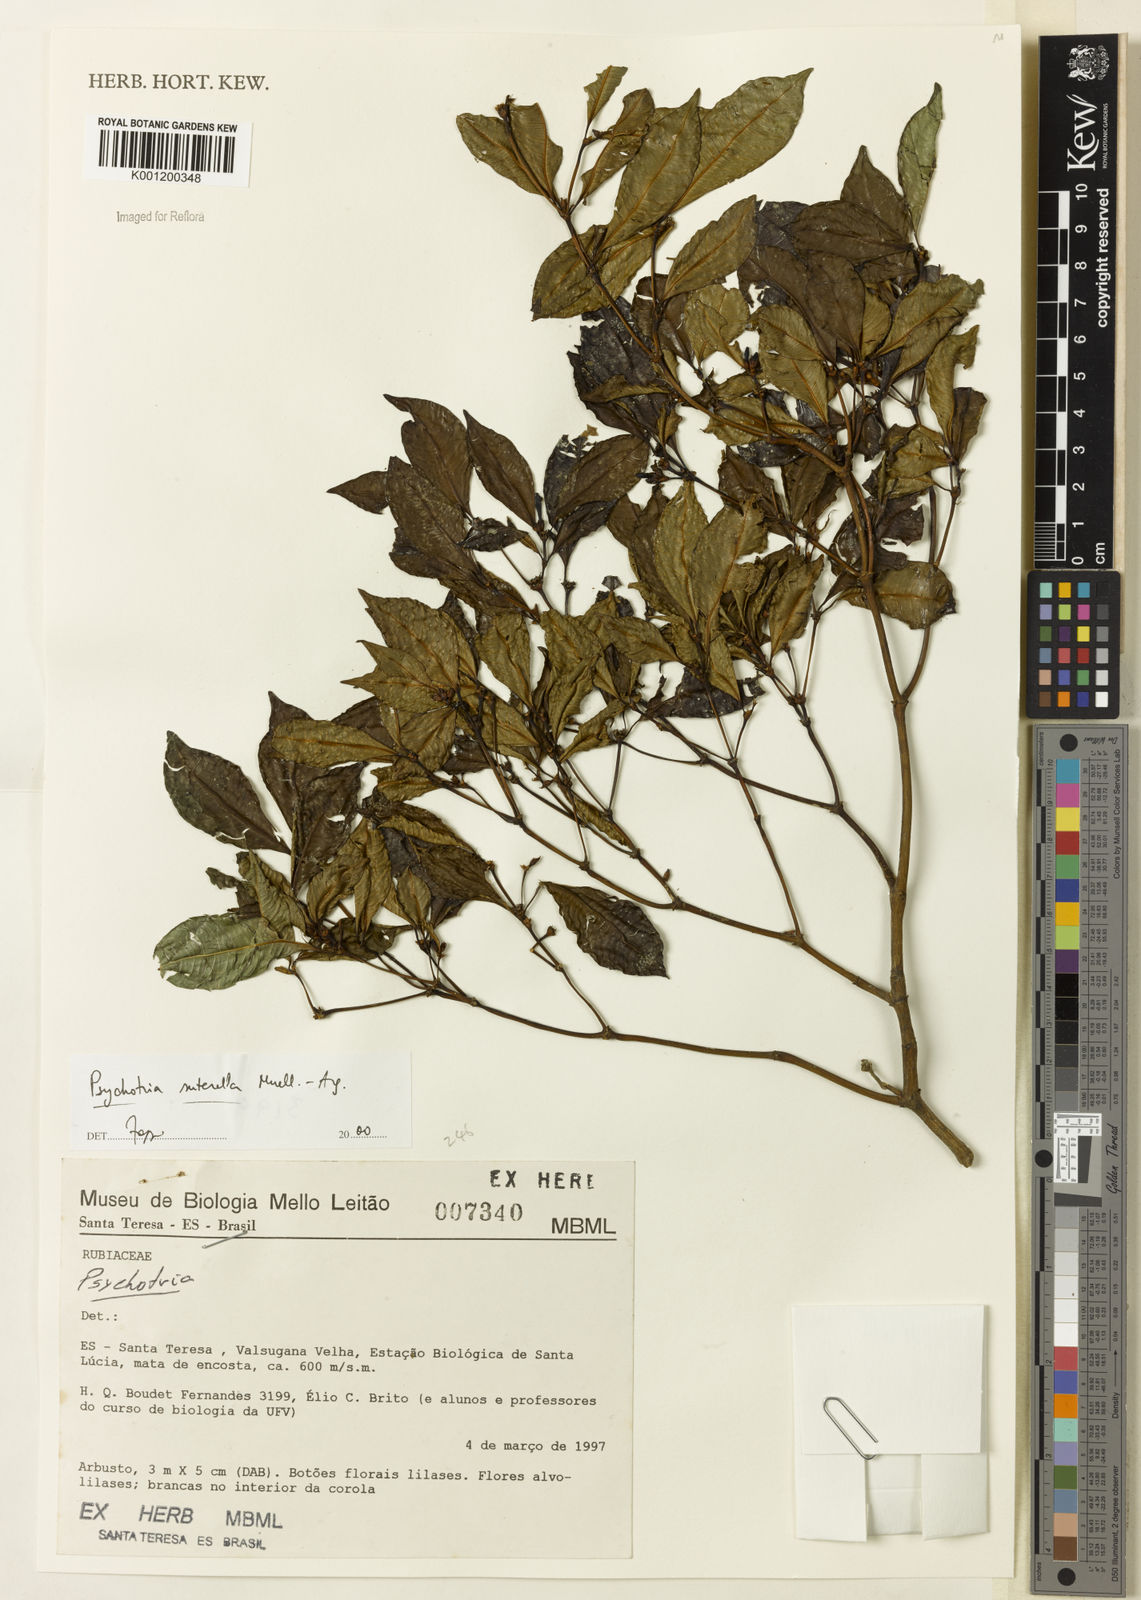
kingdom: Plantae
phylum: Tracheophyta
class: Magnoliopsida
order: Gentianales
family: Rubiaceae
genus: Psychotria
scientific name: Psychotria
